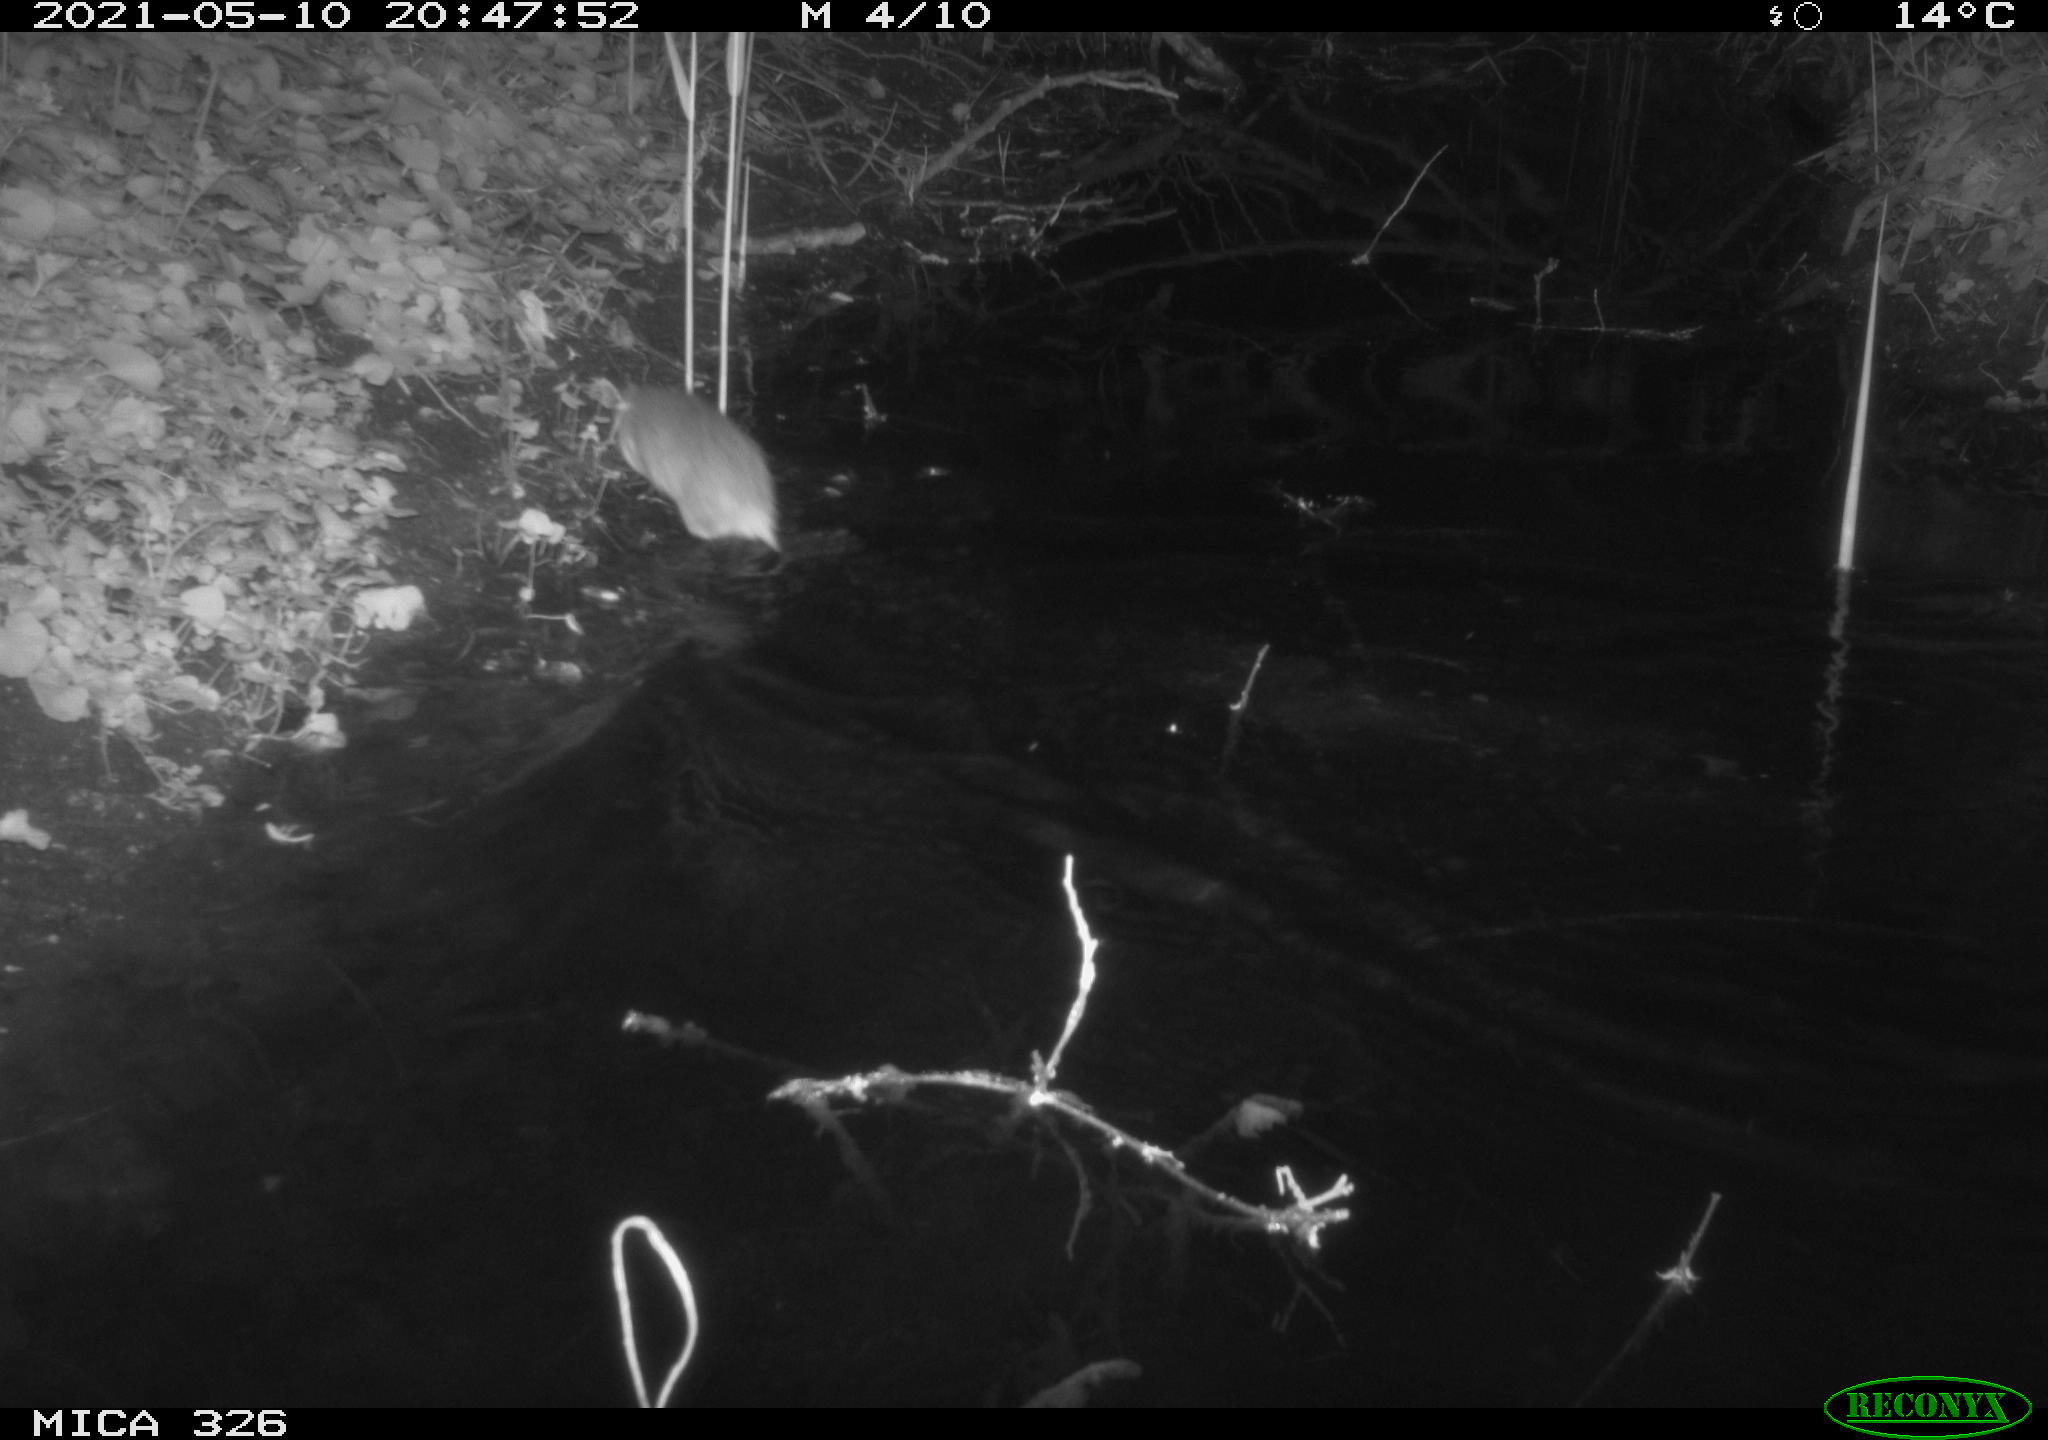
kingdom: Animalia
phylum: Chordata
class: Mammalia
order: Rodentia
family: Muridae
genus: Rattus
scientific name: Rattus norvegicus
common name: Brown rat
